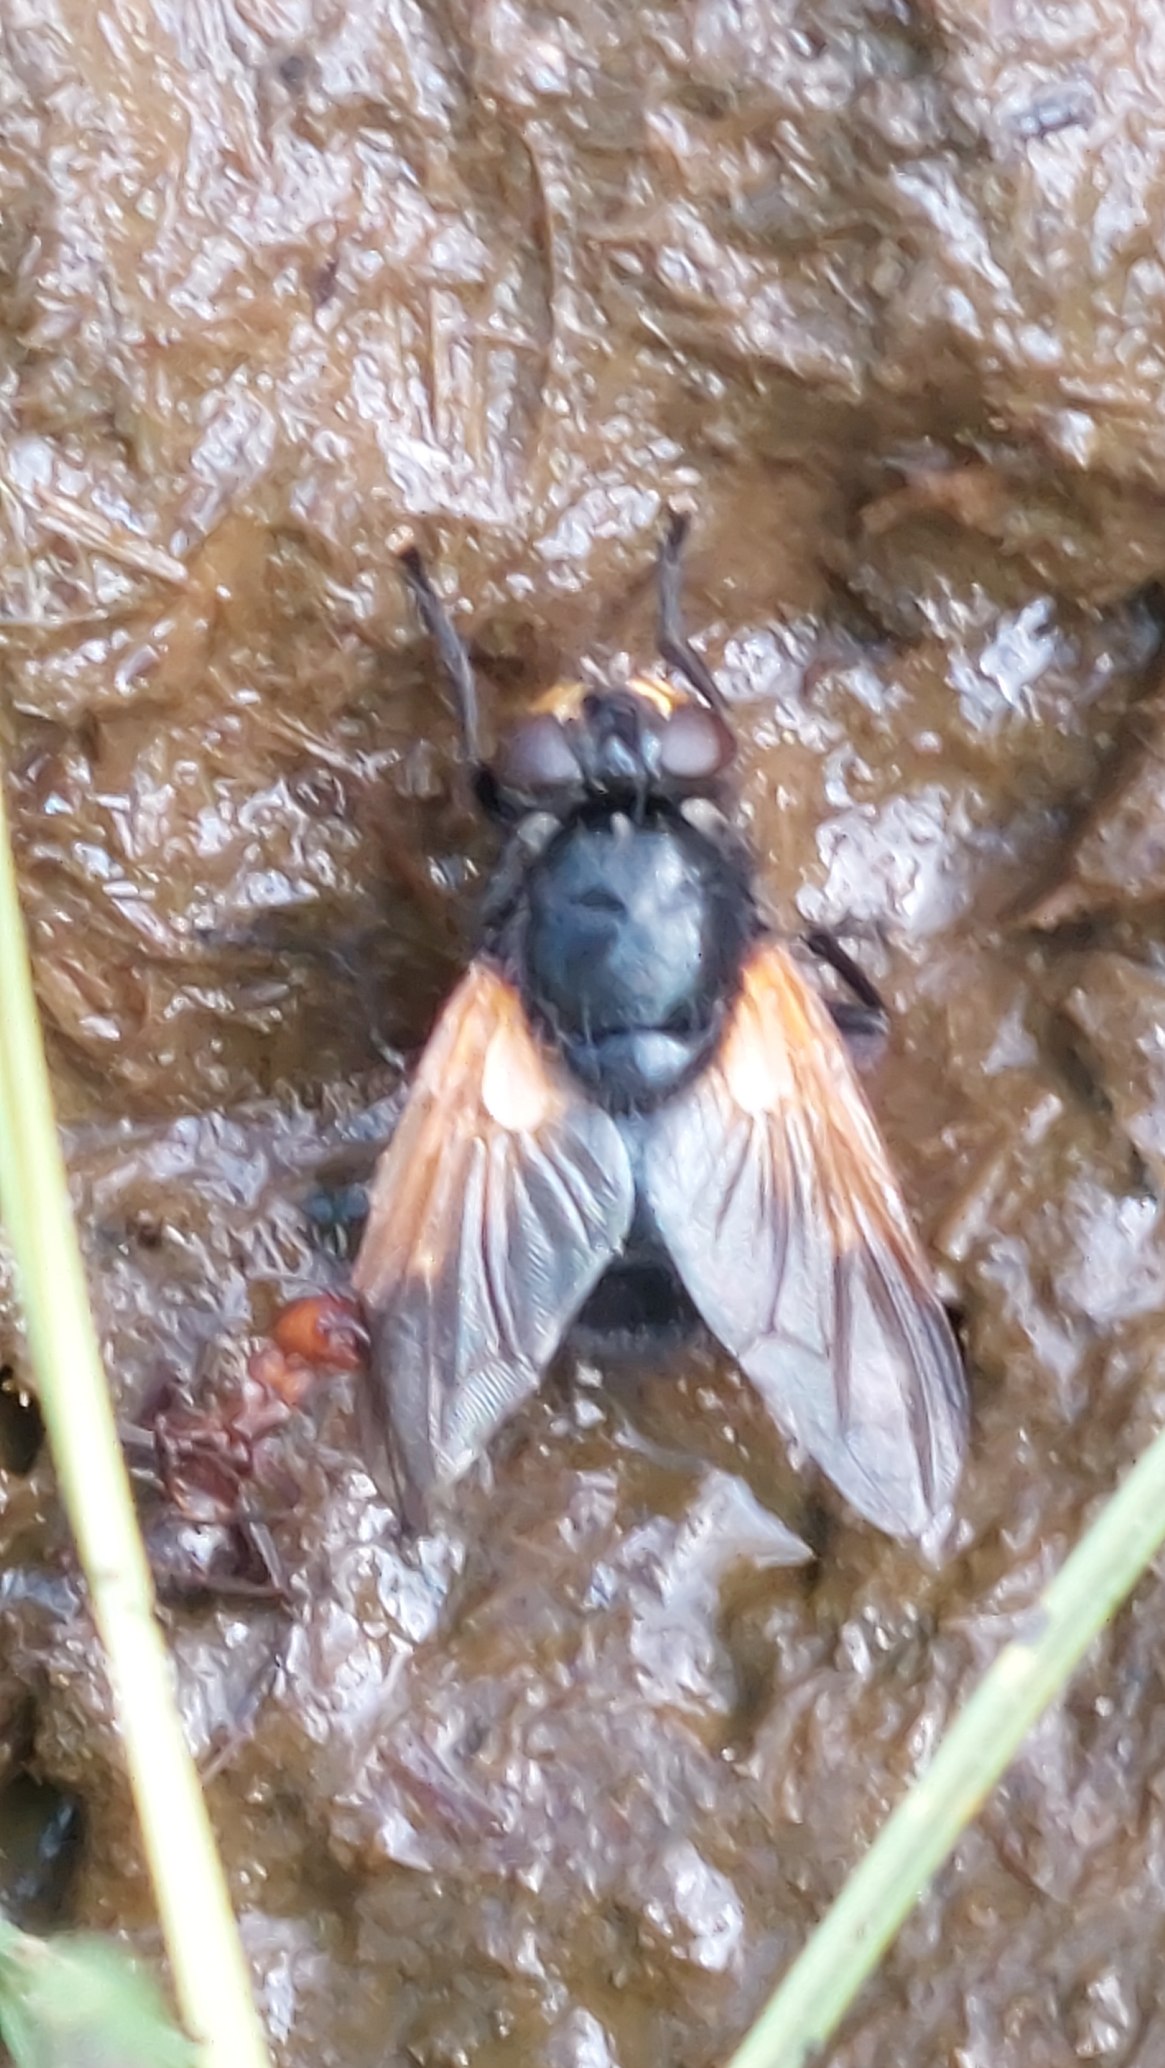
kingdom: Animalia
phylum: Arthropoda
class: Insecta
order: Diptera
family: Muscidae
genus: Mesembrina
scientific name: Mesembrina meridiana
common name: Gulvinget flue
